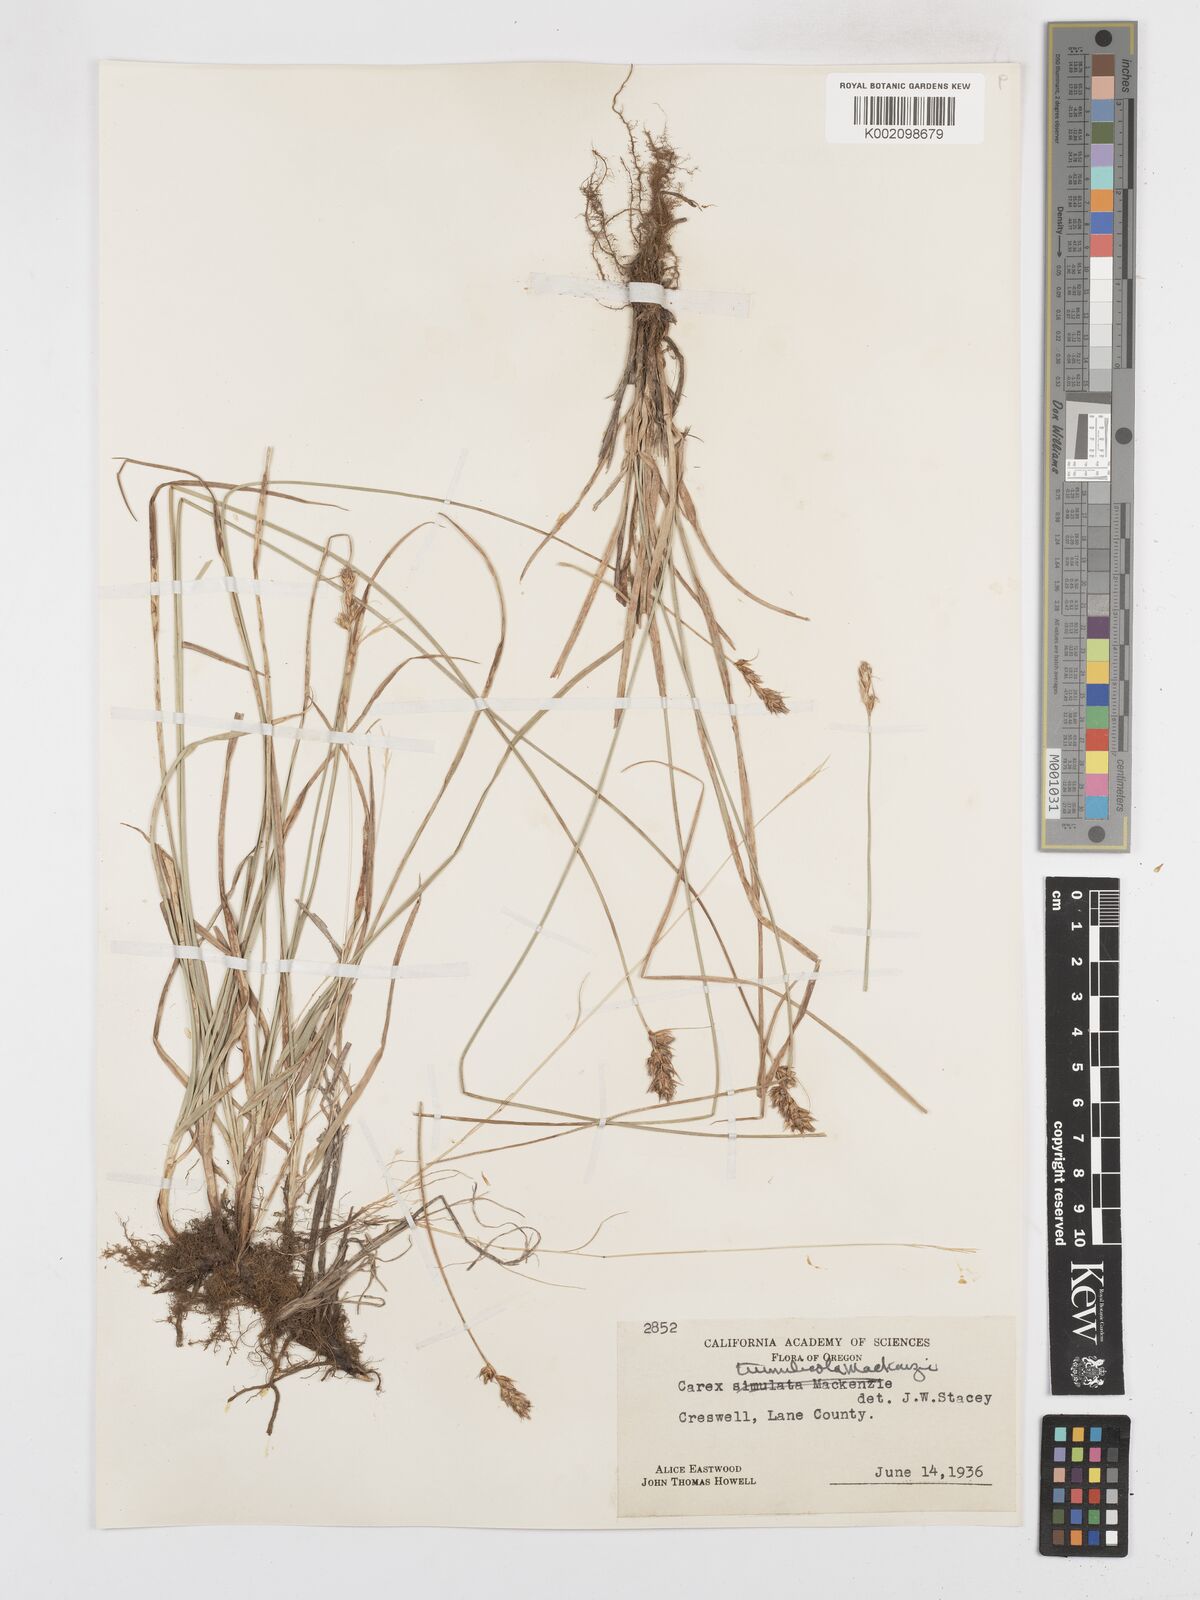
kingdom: Plantae
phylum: Tracheophyta
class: Liliopsida
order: Poales
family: Cyperaceae
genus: Carex
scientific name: Carex tumulicola
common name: Splitawn sedge
